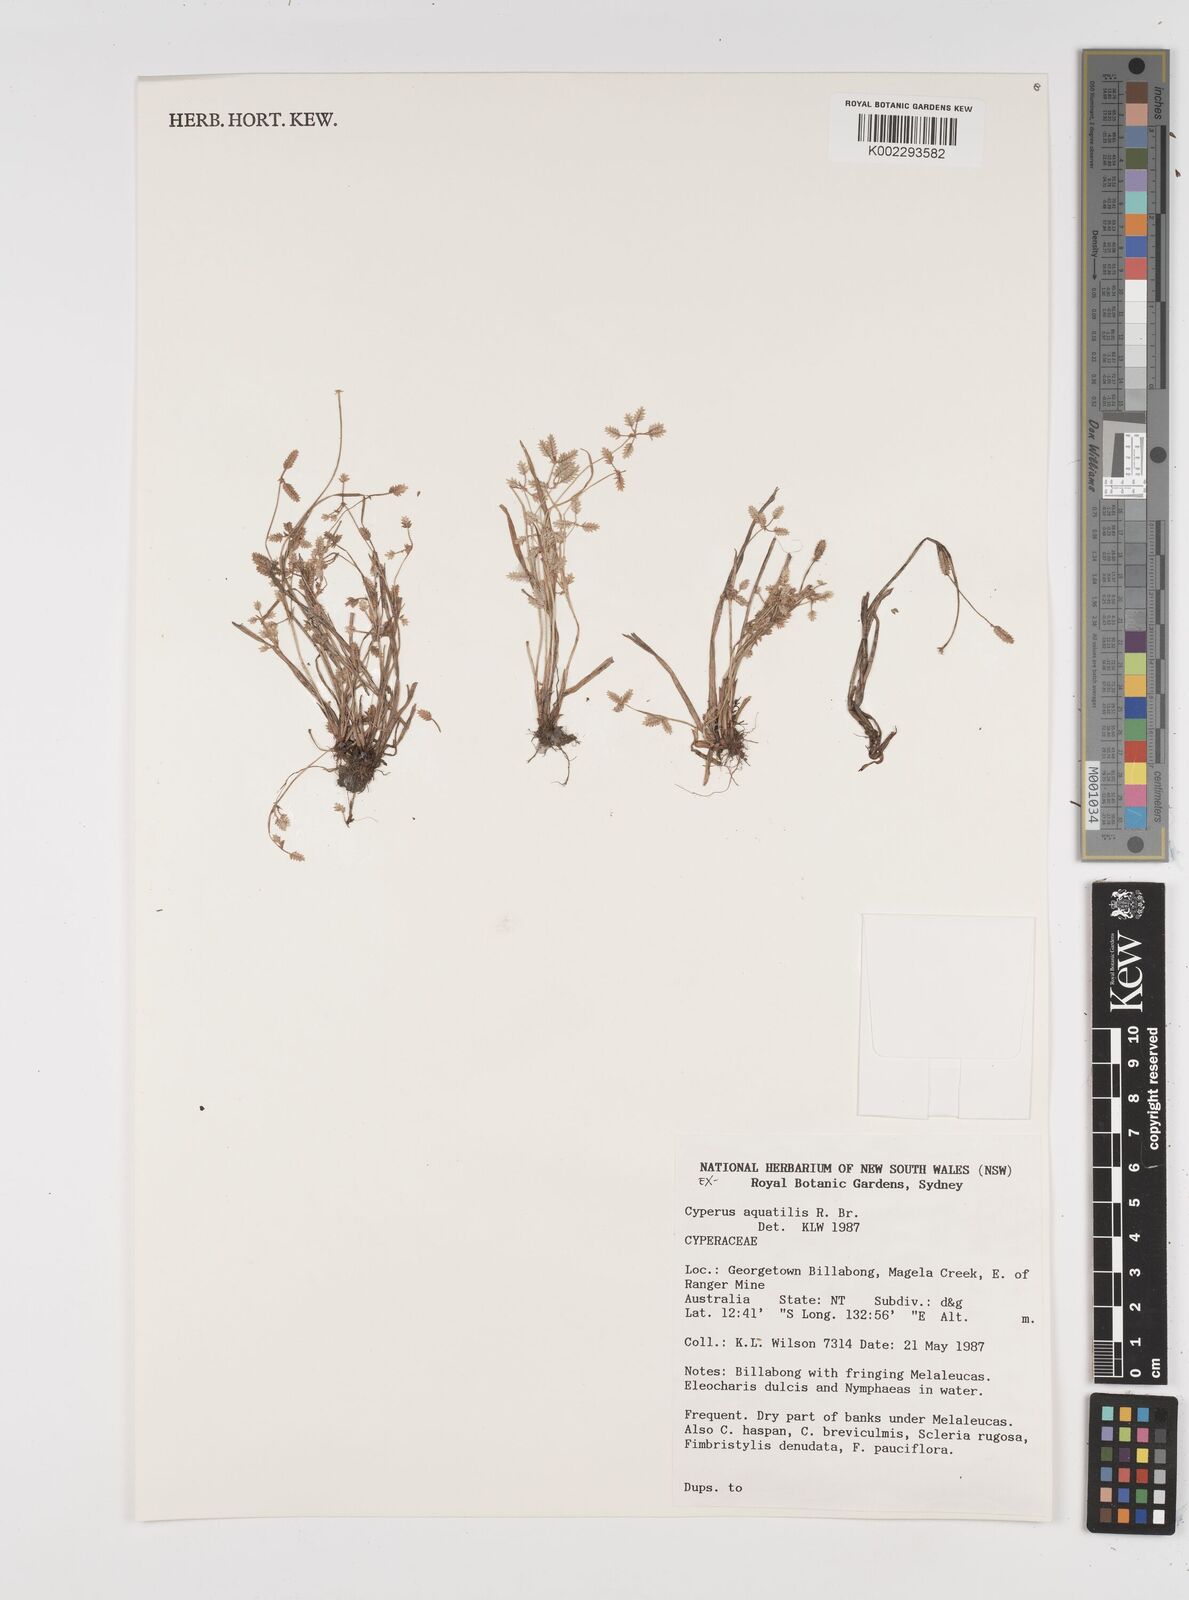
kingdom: Plantae
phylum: Tracheophyta
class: Liliopsida
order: Poales
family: Cyperaceae
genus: Cyperus
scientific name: Cyperus aquatilis
